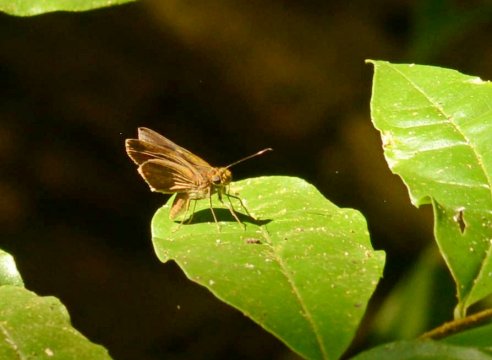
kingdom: Animalia
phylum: Arthropoda
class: Insecta
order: Lepidoptera
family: Hesperiidae
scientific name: Hesperiidae
